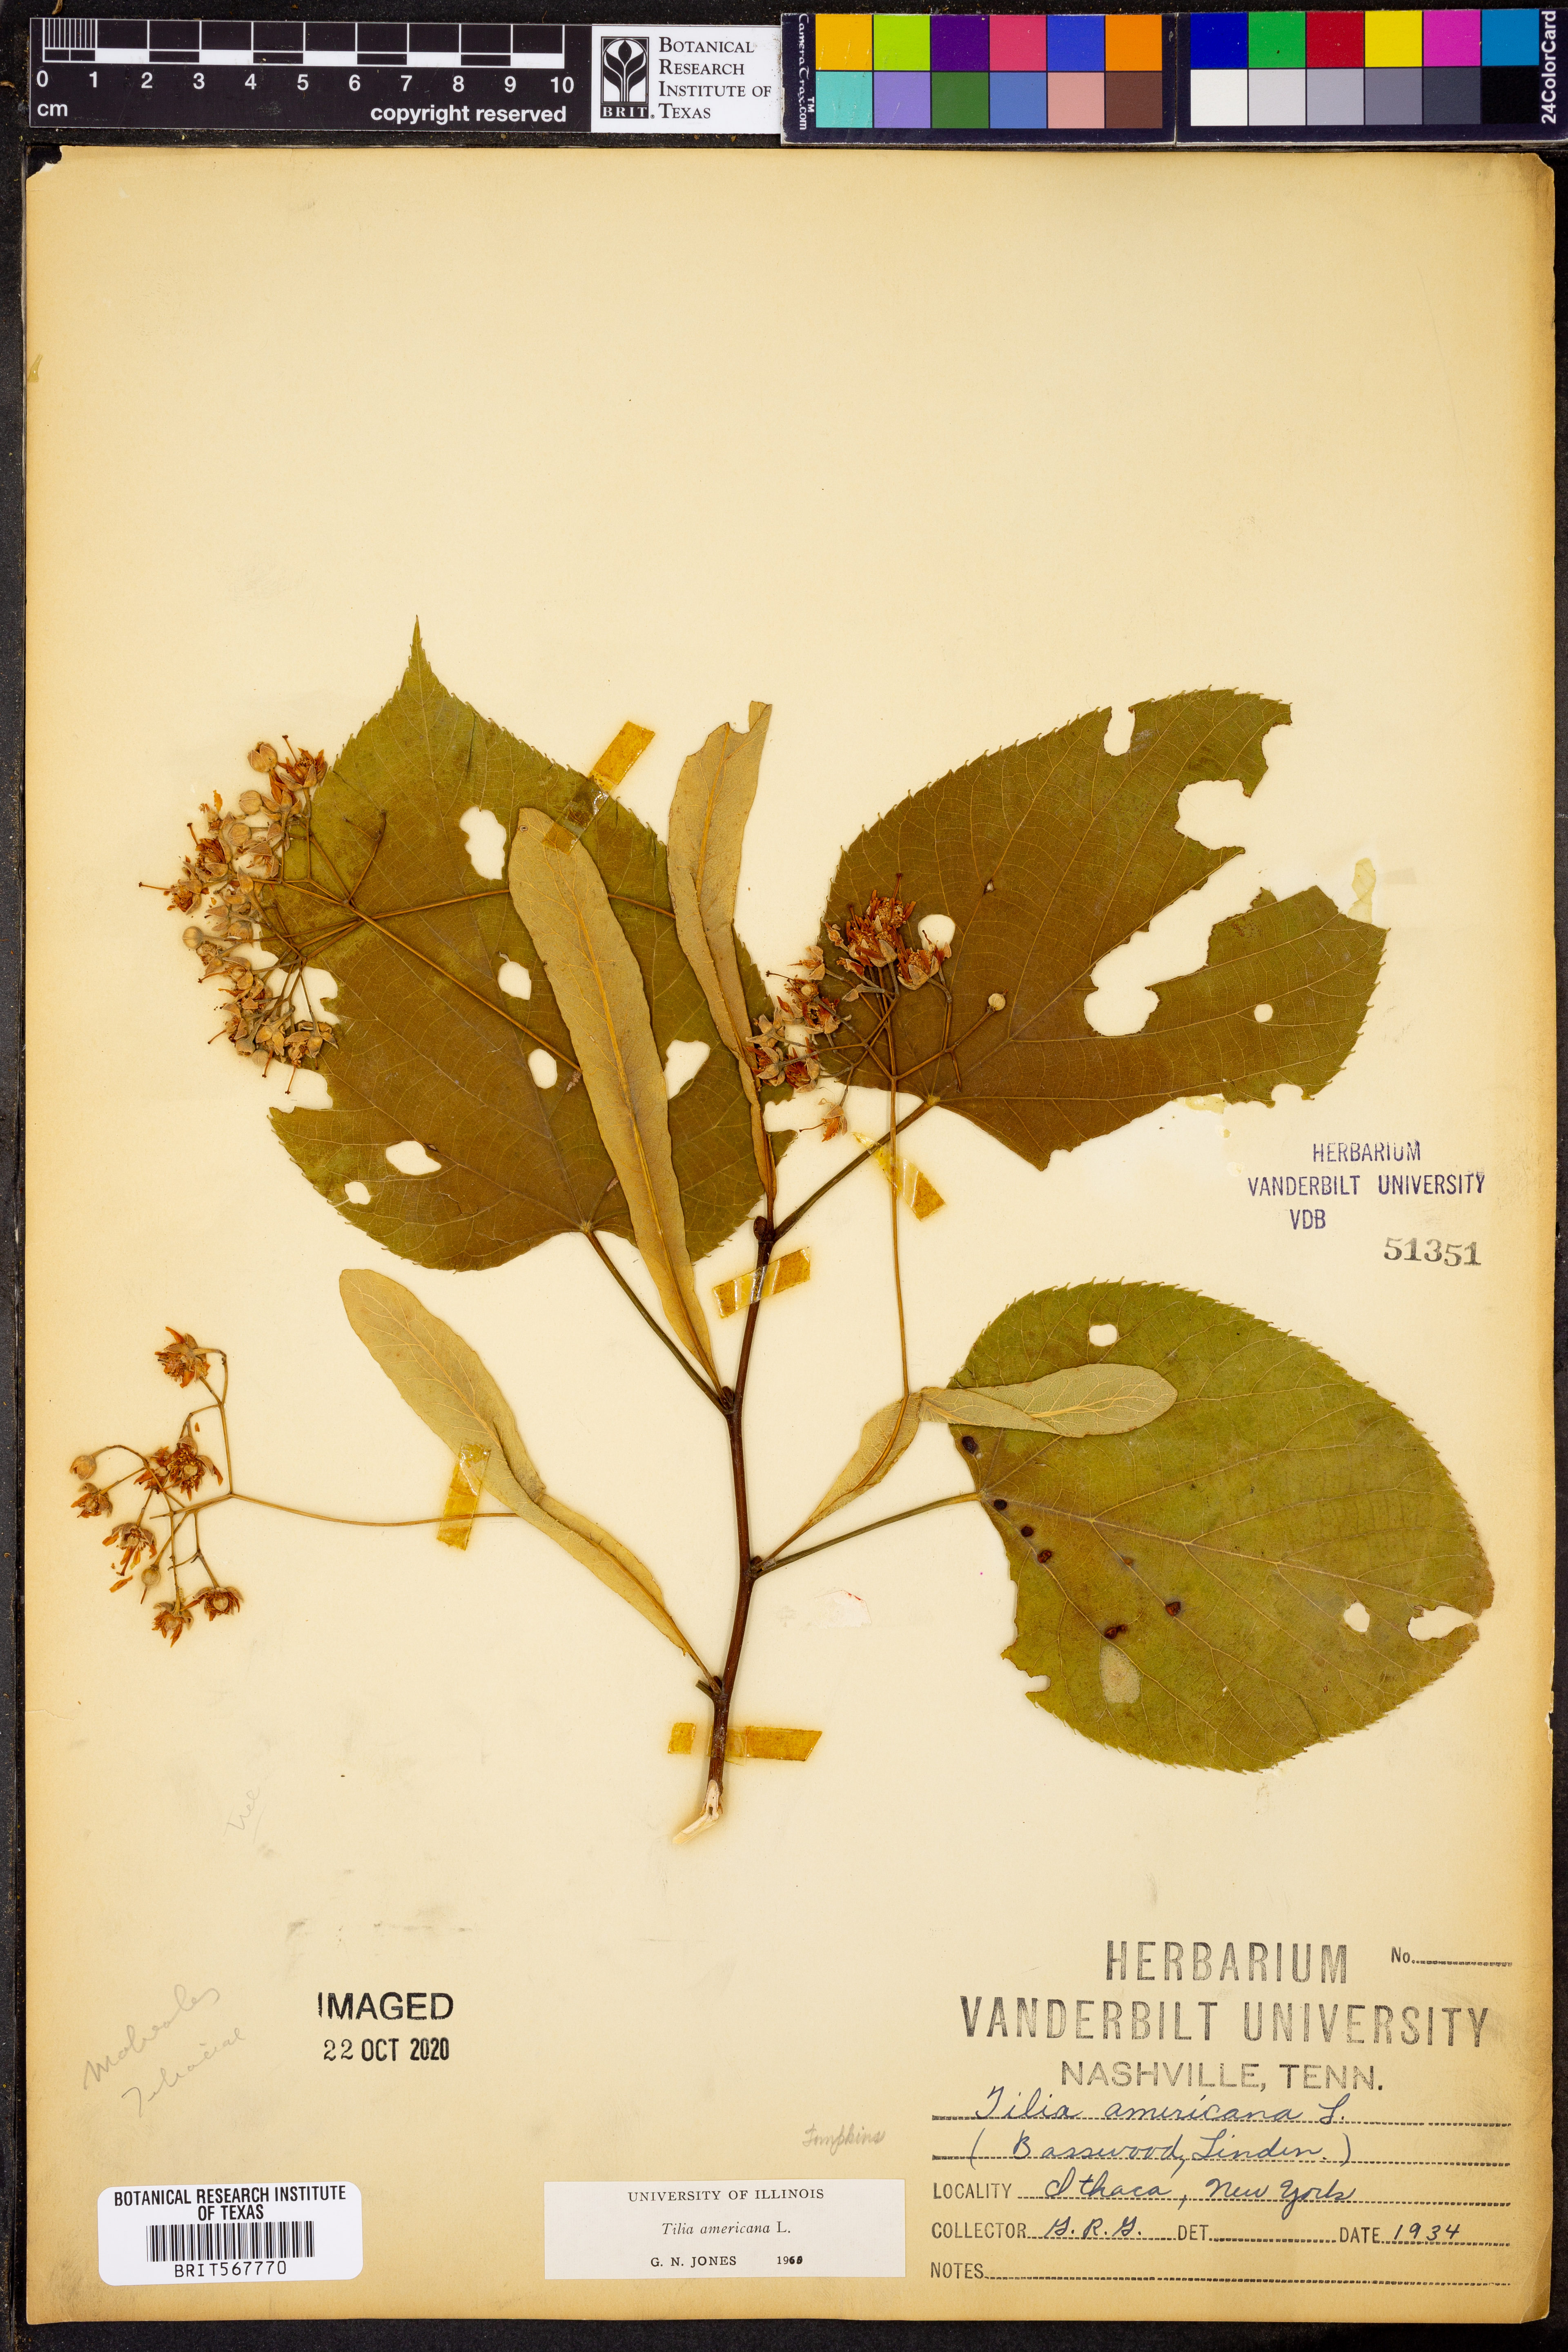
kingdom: Plantae
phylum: Tracheophyta
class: Magnoliopsida
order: Malvales
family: Malvaceae
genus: Tilia
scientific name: Tilia americana
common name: Basswood
